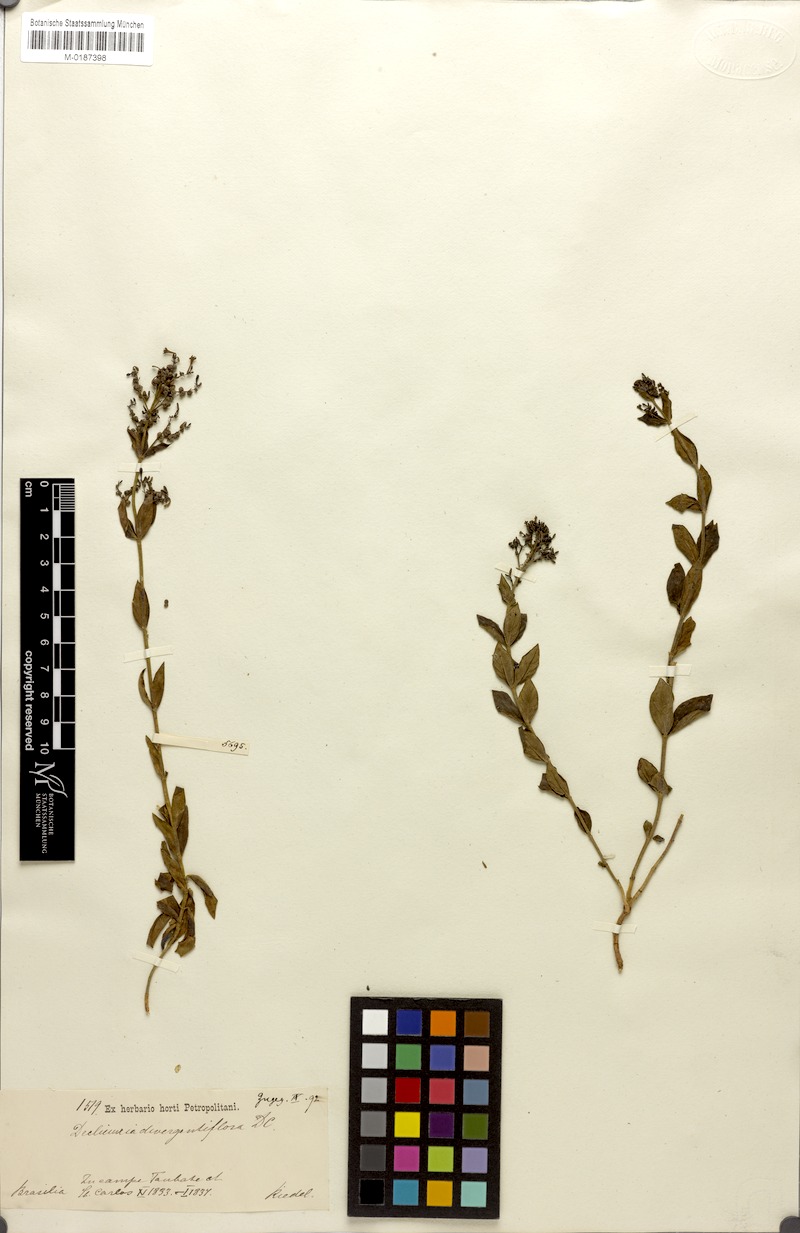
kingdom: Plantae
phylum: Tracheophyta
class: Magnoliopsida
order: Gentianales
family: Rubiaceae
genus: Declieuxia
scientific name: Declieuxia cordigera
